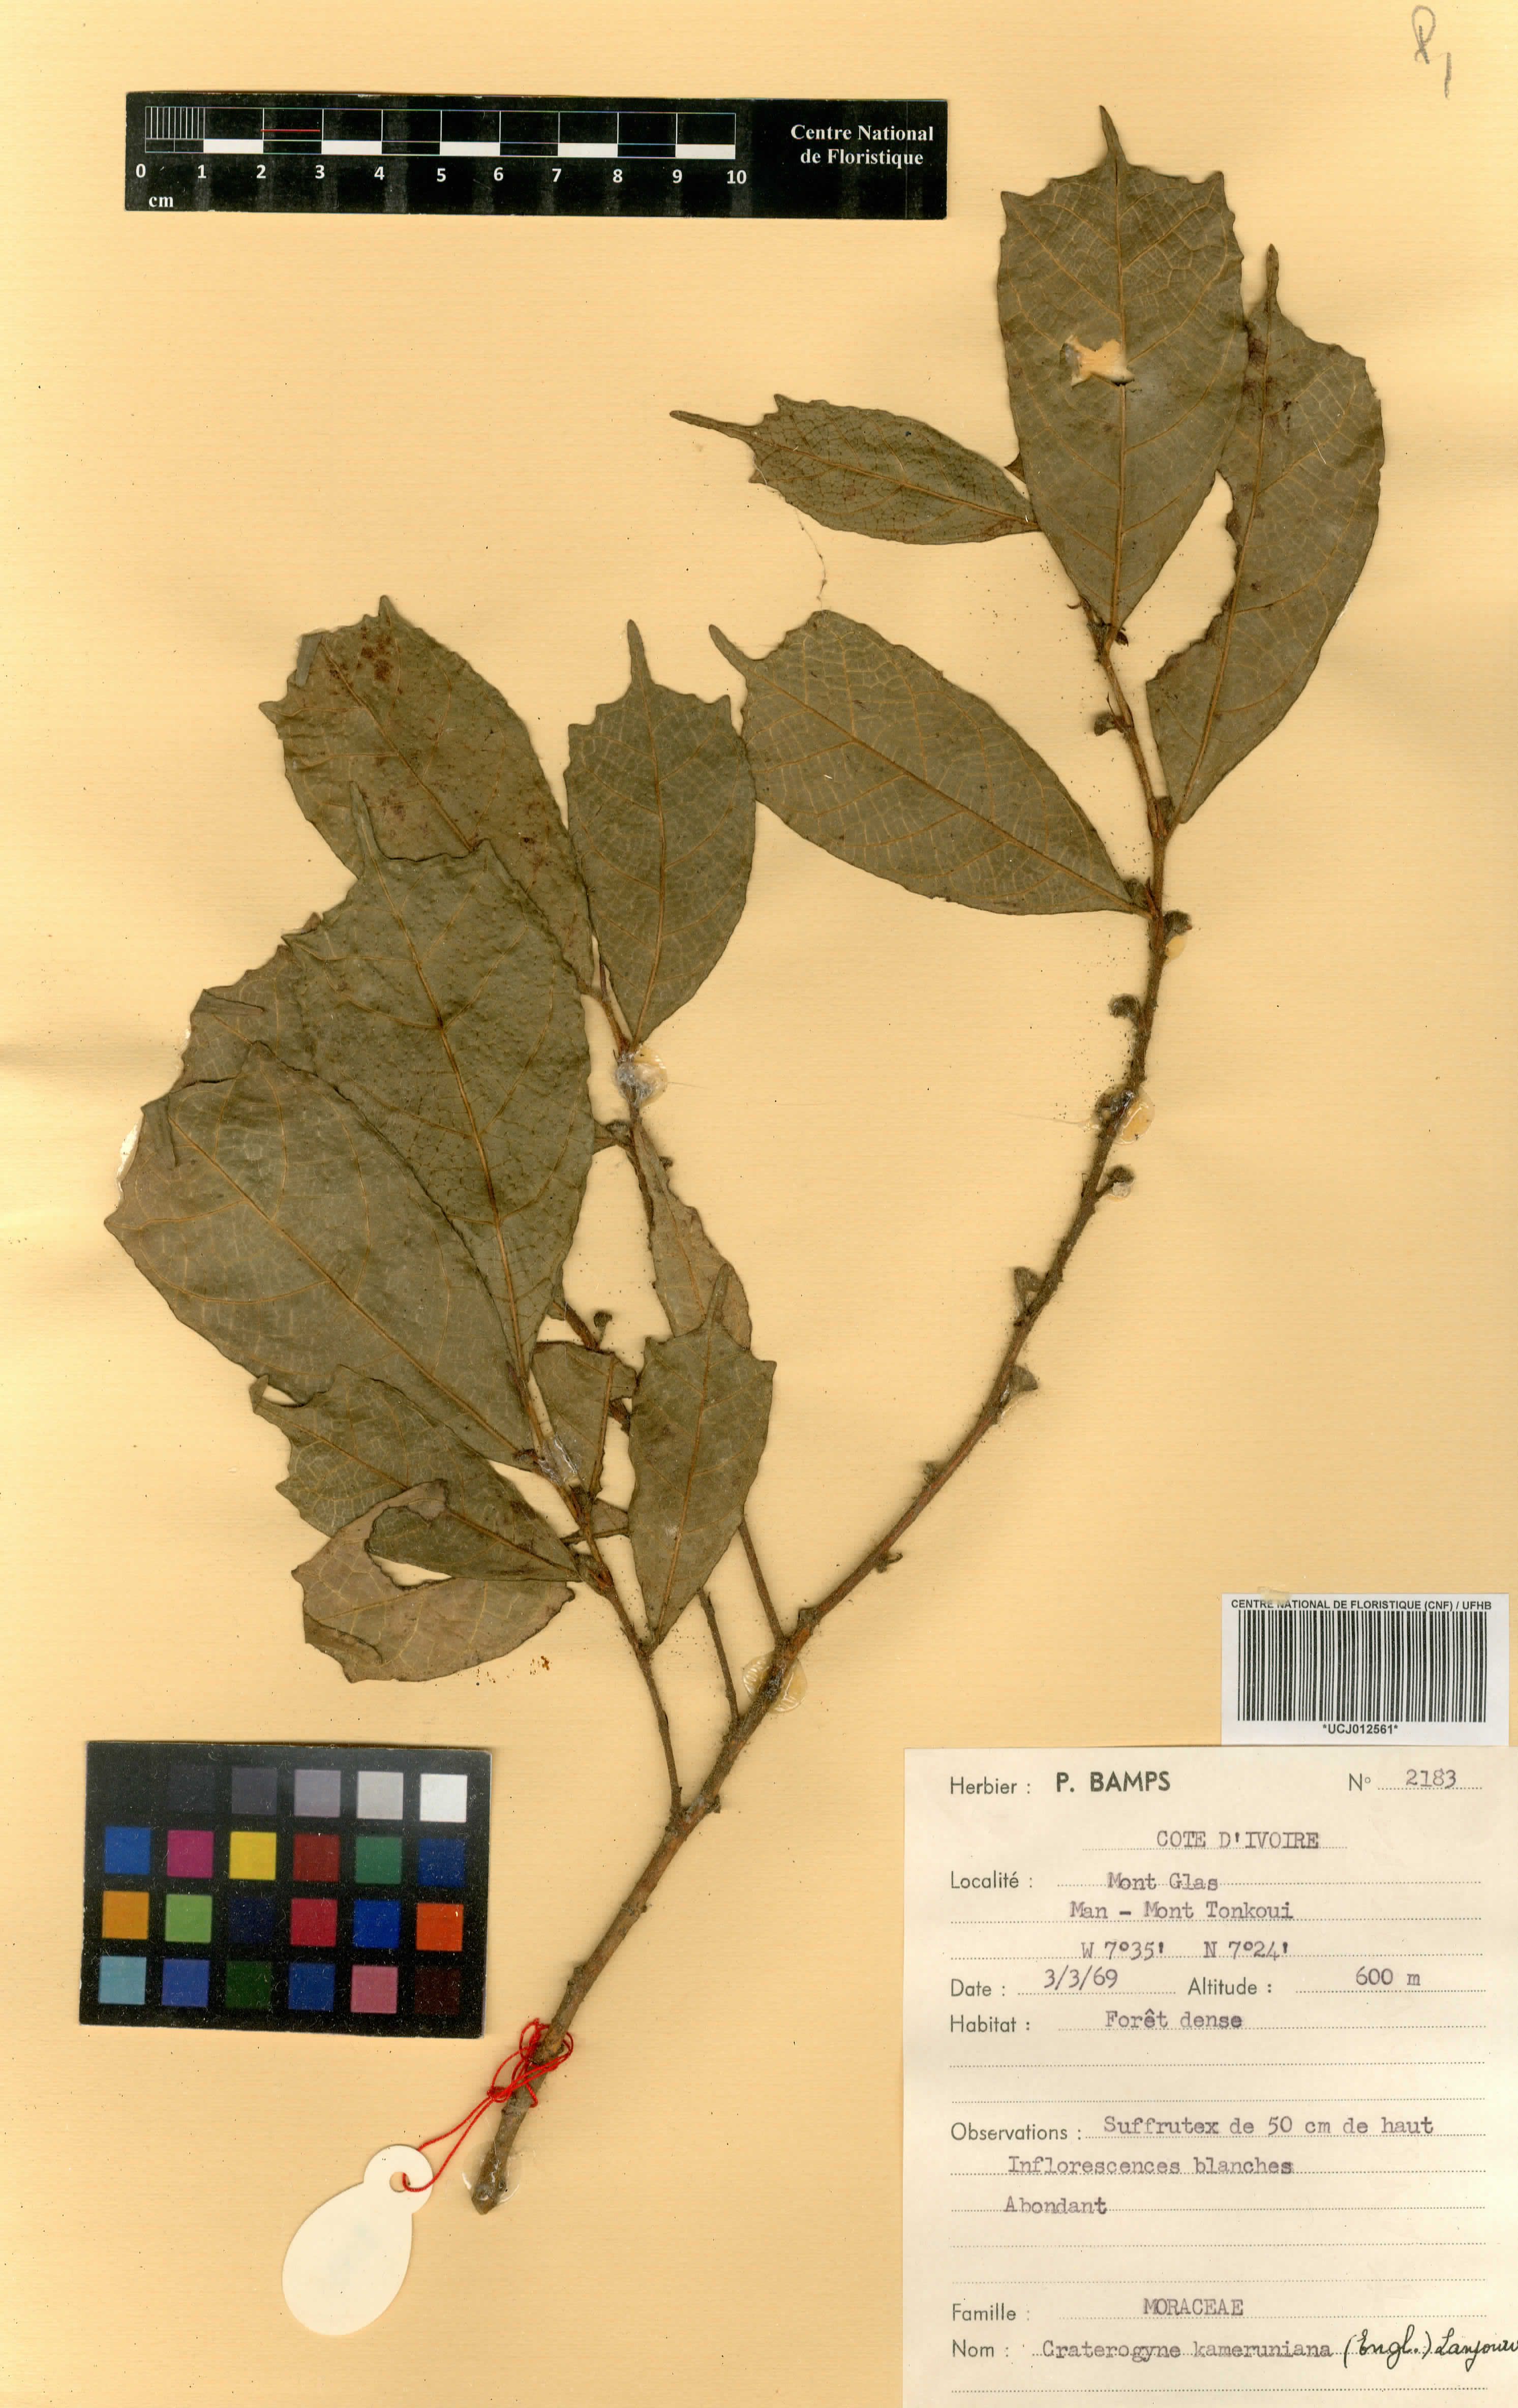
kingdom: Plantae
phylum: Tracheophyta
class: Magnoliopsida
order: Rosales
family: Moraceae
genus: Dorstenia
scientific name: Dorstenia kameruniana
